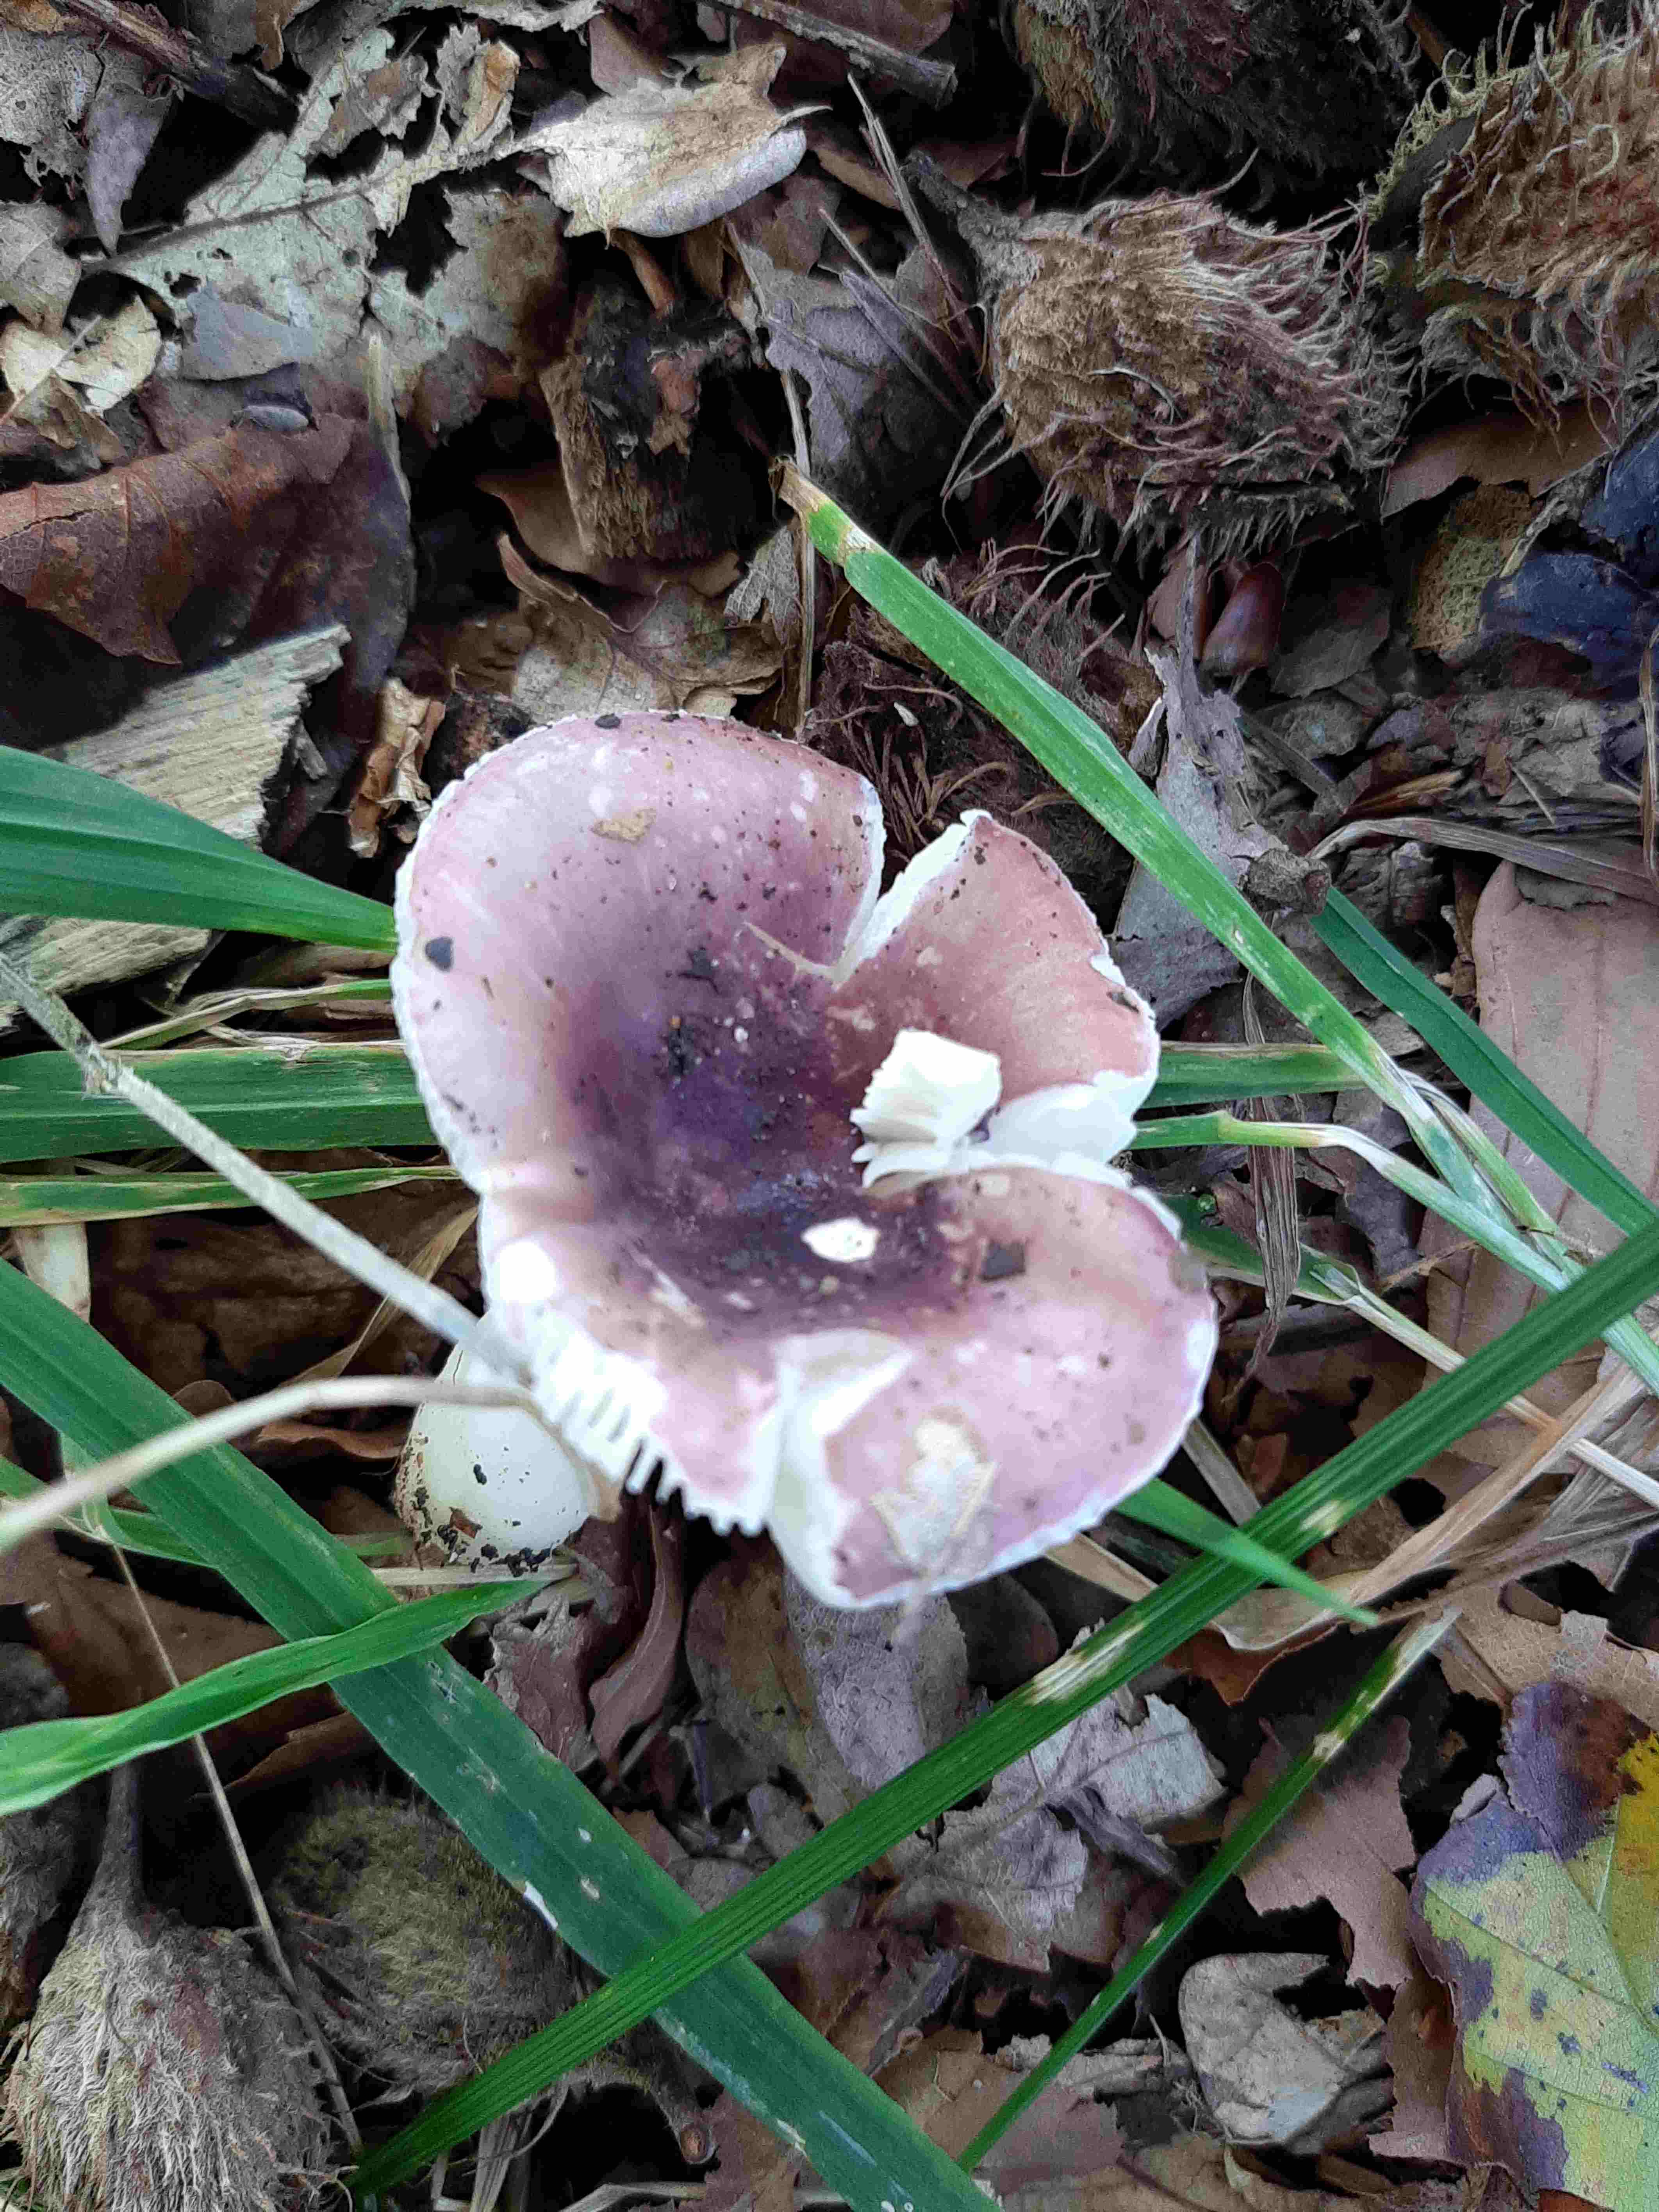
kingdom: Fungi
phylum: Basidiomycota
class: Agaricomycetes
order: Russulales
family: Russulaceae
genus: Russula
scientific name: Russula fragilis
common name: savbladet skørhat
